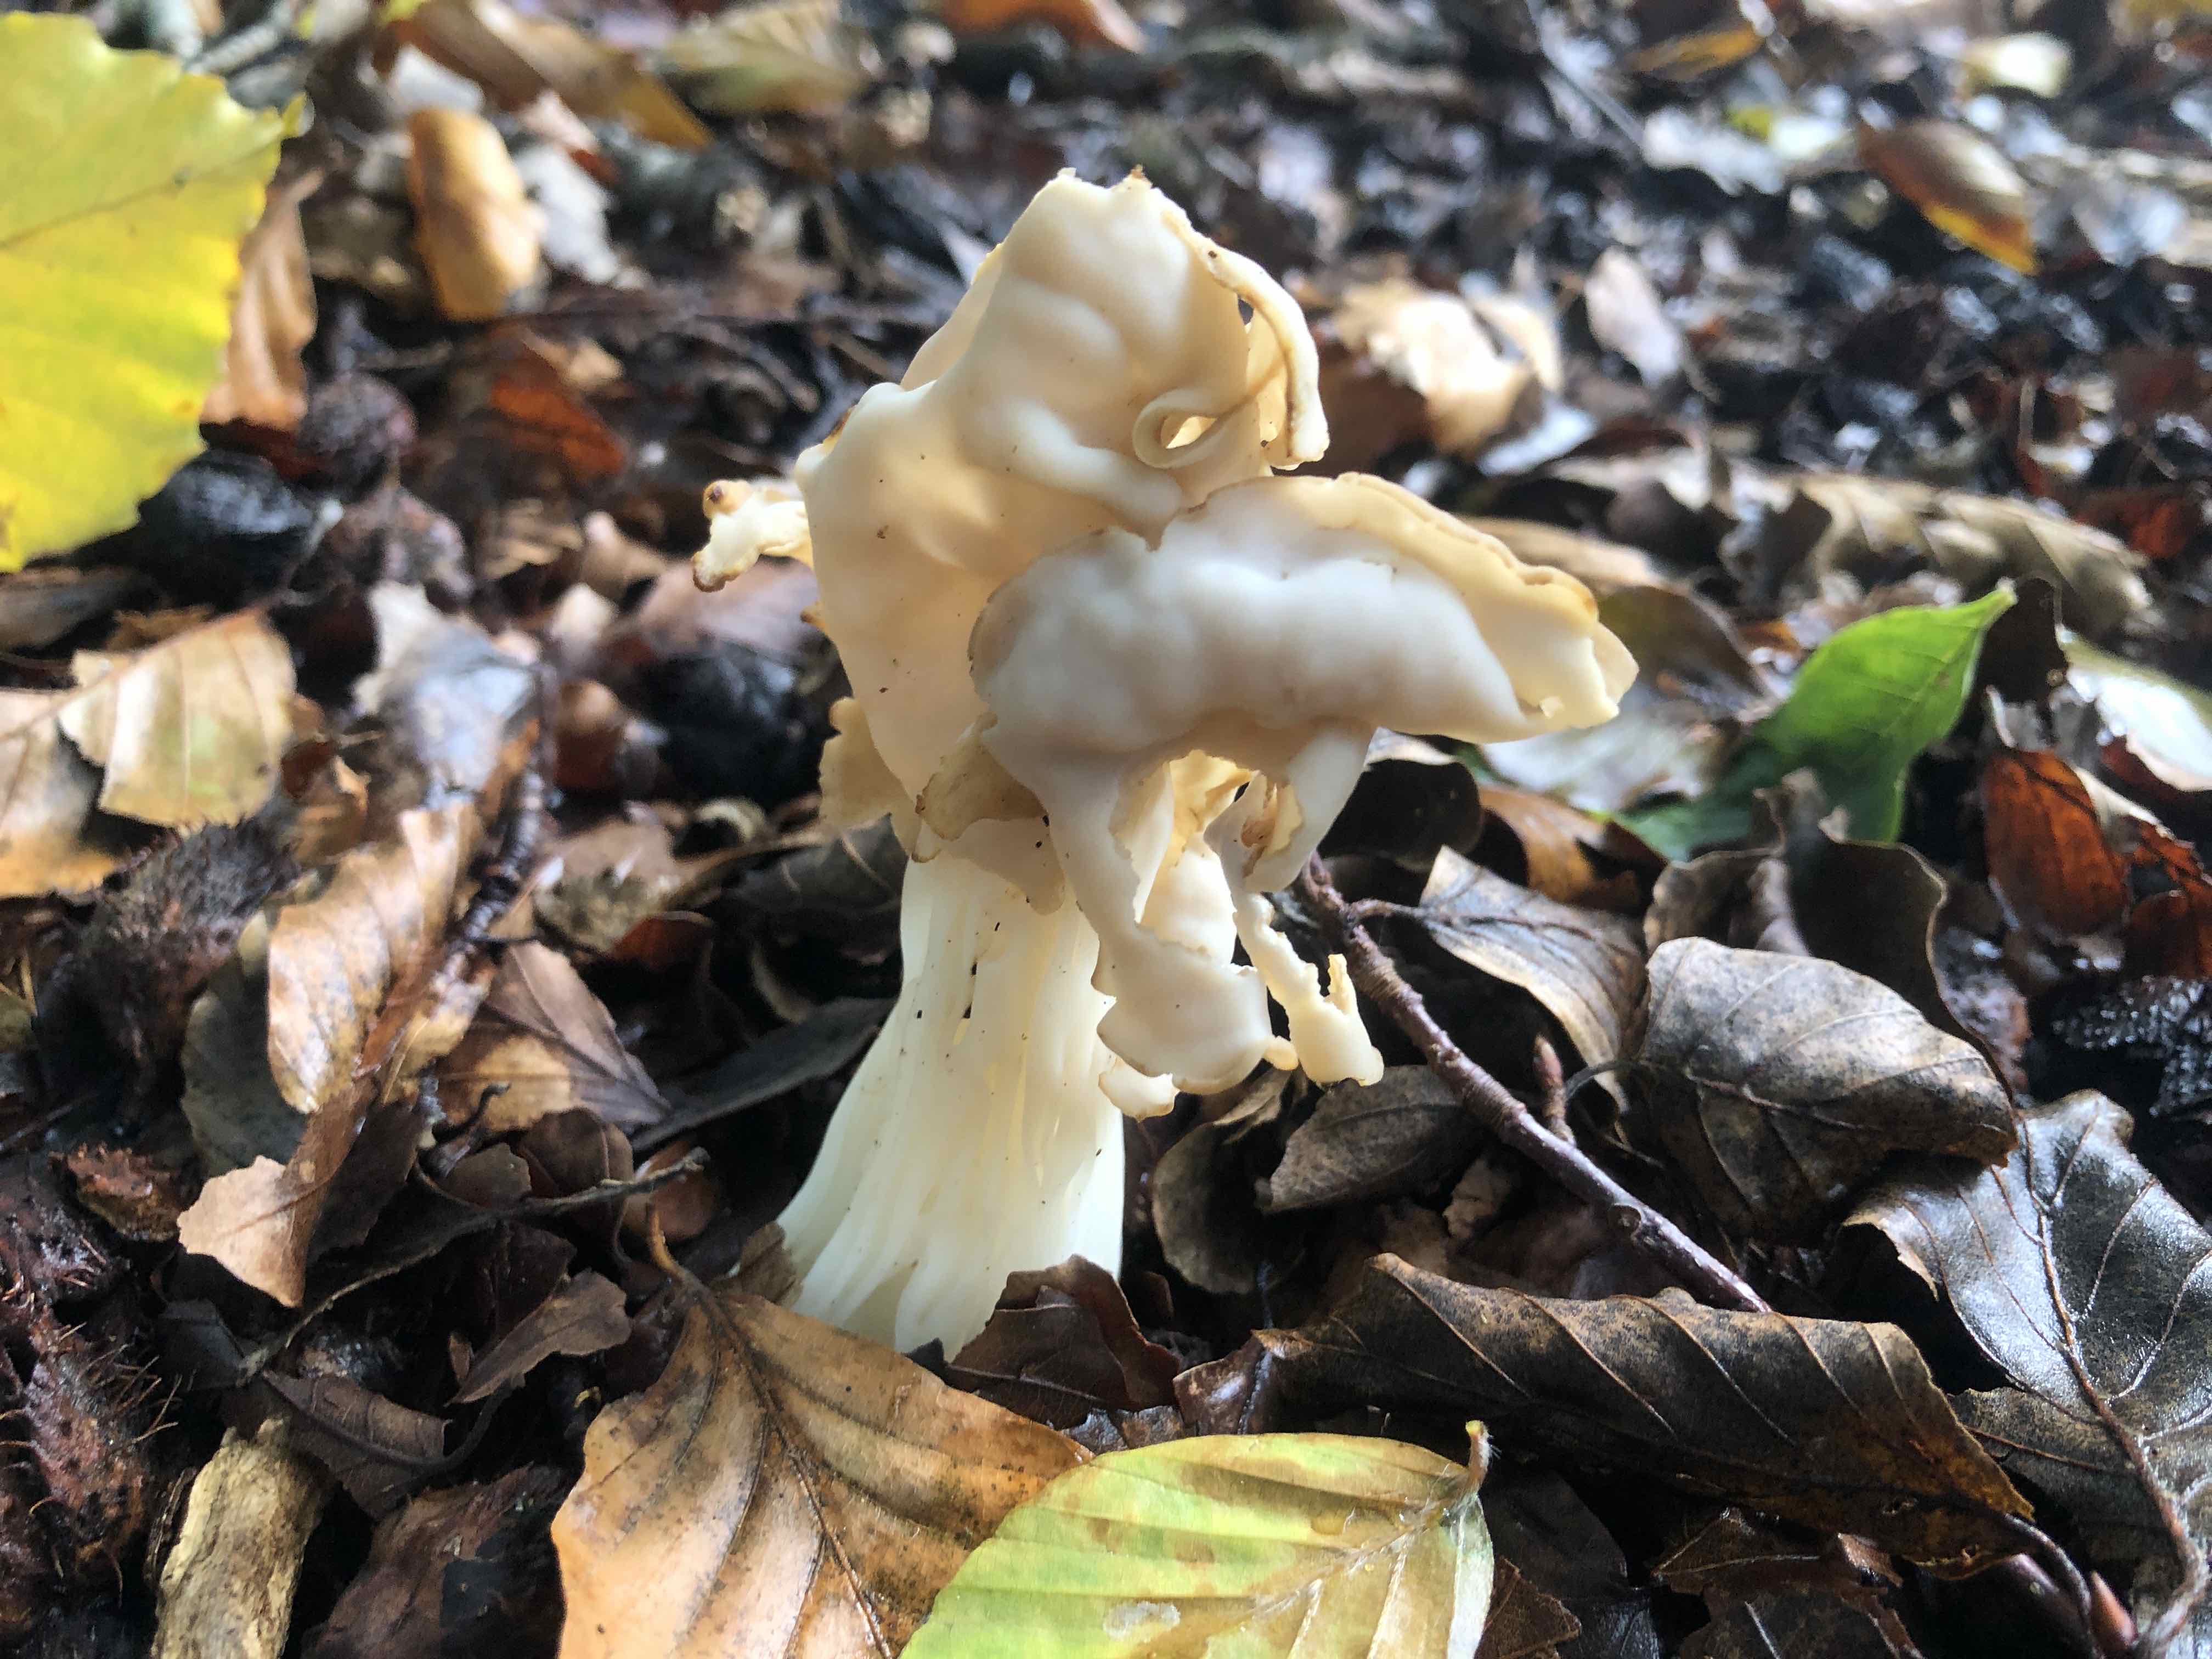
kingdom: Fungi
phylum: Ascomycota
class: Pezizomycetes
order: Pezizales
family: Helvellaceae
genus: Helvella
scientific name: Helvella crispa
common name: kruset foldhat
